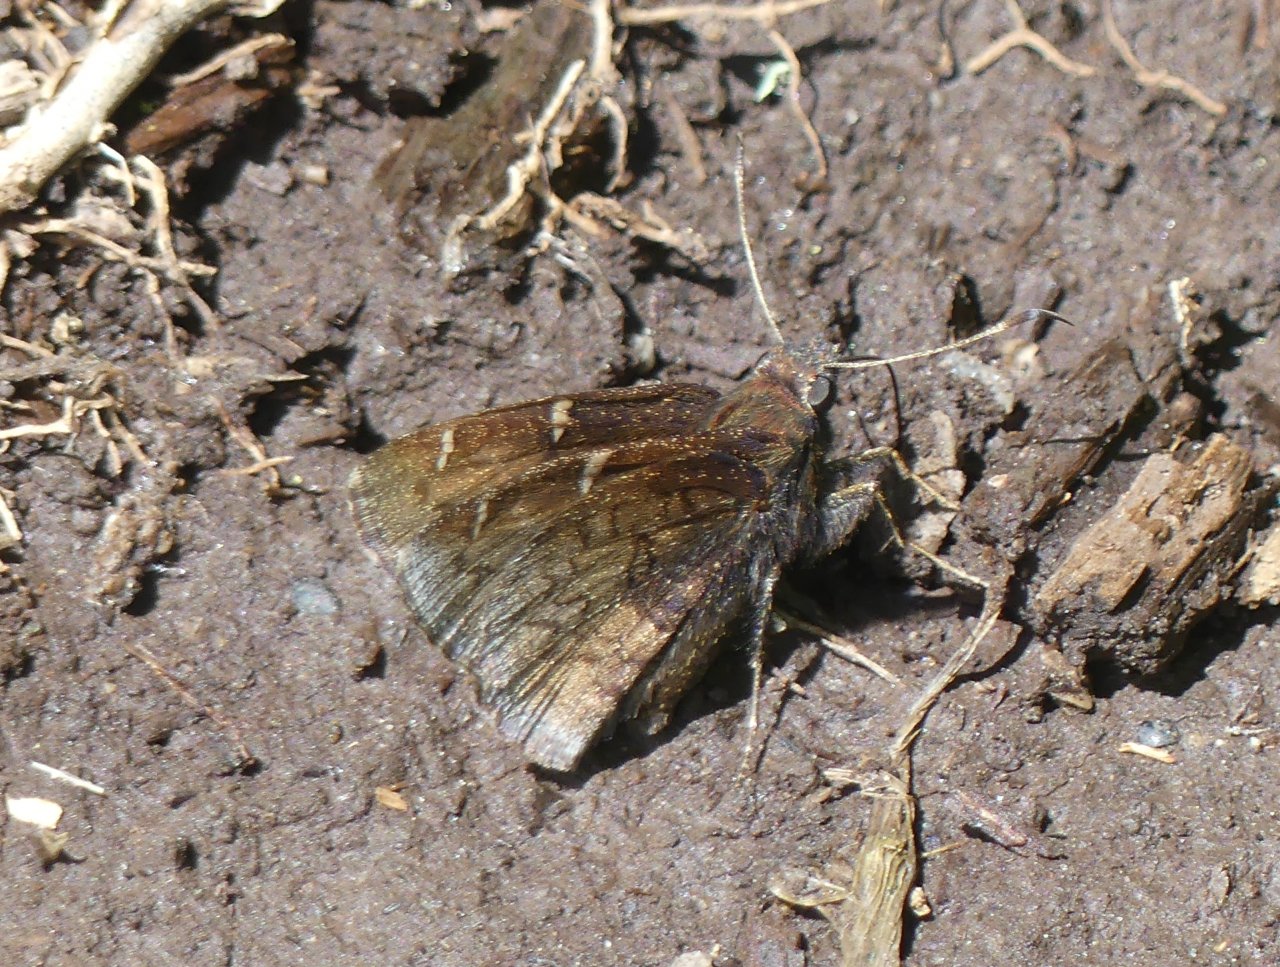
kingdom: Animalia
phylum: Arthropoda
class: Insecta
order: Lepidoptera
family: Hesperiidae
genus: Autochton
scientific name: Autochton
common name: Northern Cloudywing
